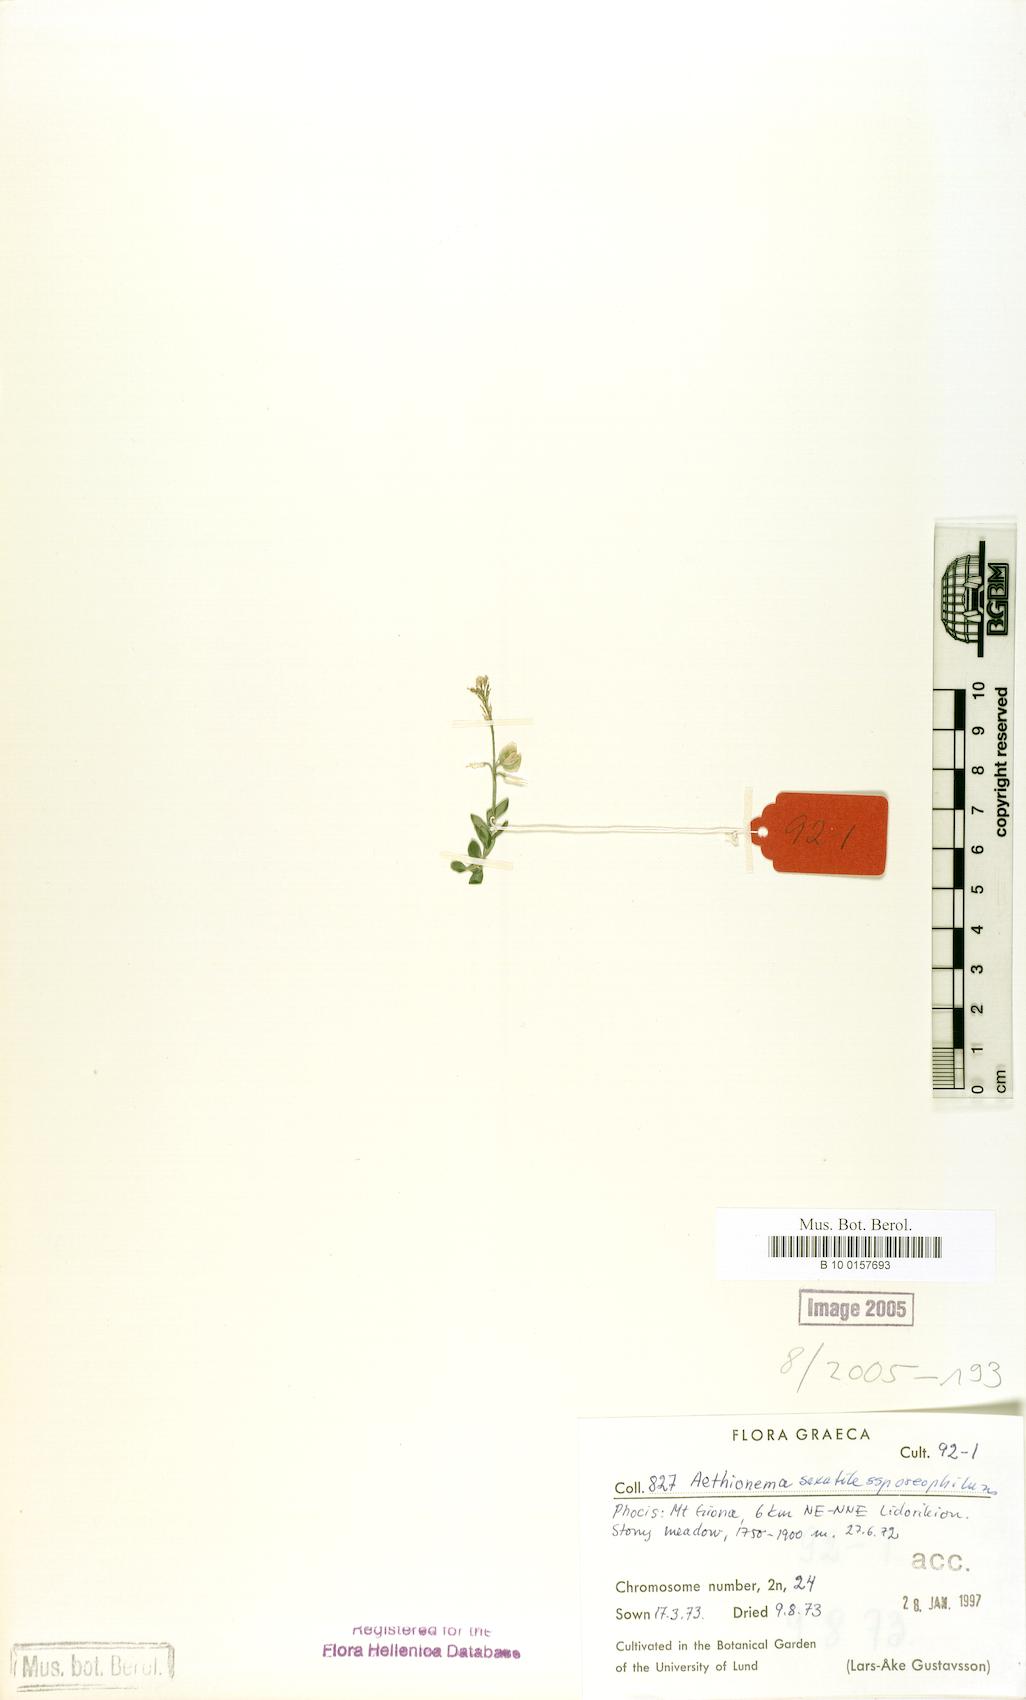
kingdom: Plantae
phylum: Tracheophyta
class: Magnoliopsida
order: Brassicales
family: Brassicaceae
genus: Aethionema
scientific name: Aethionema saxatile
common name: Burnt candytuft
